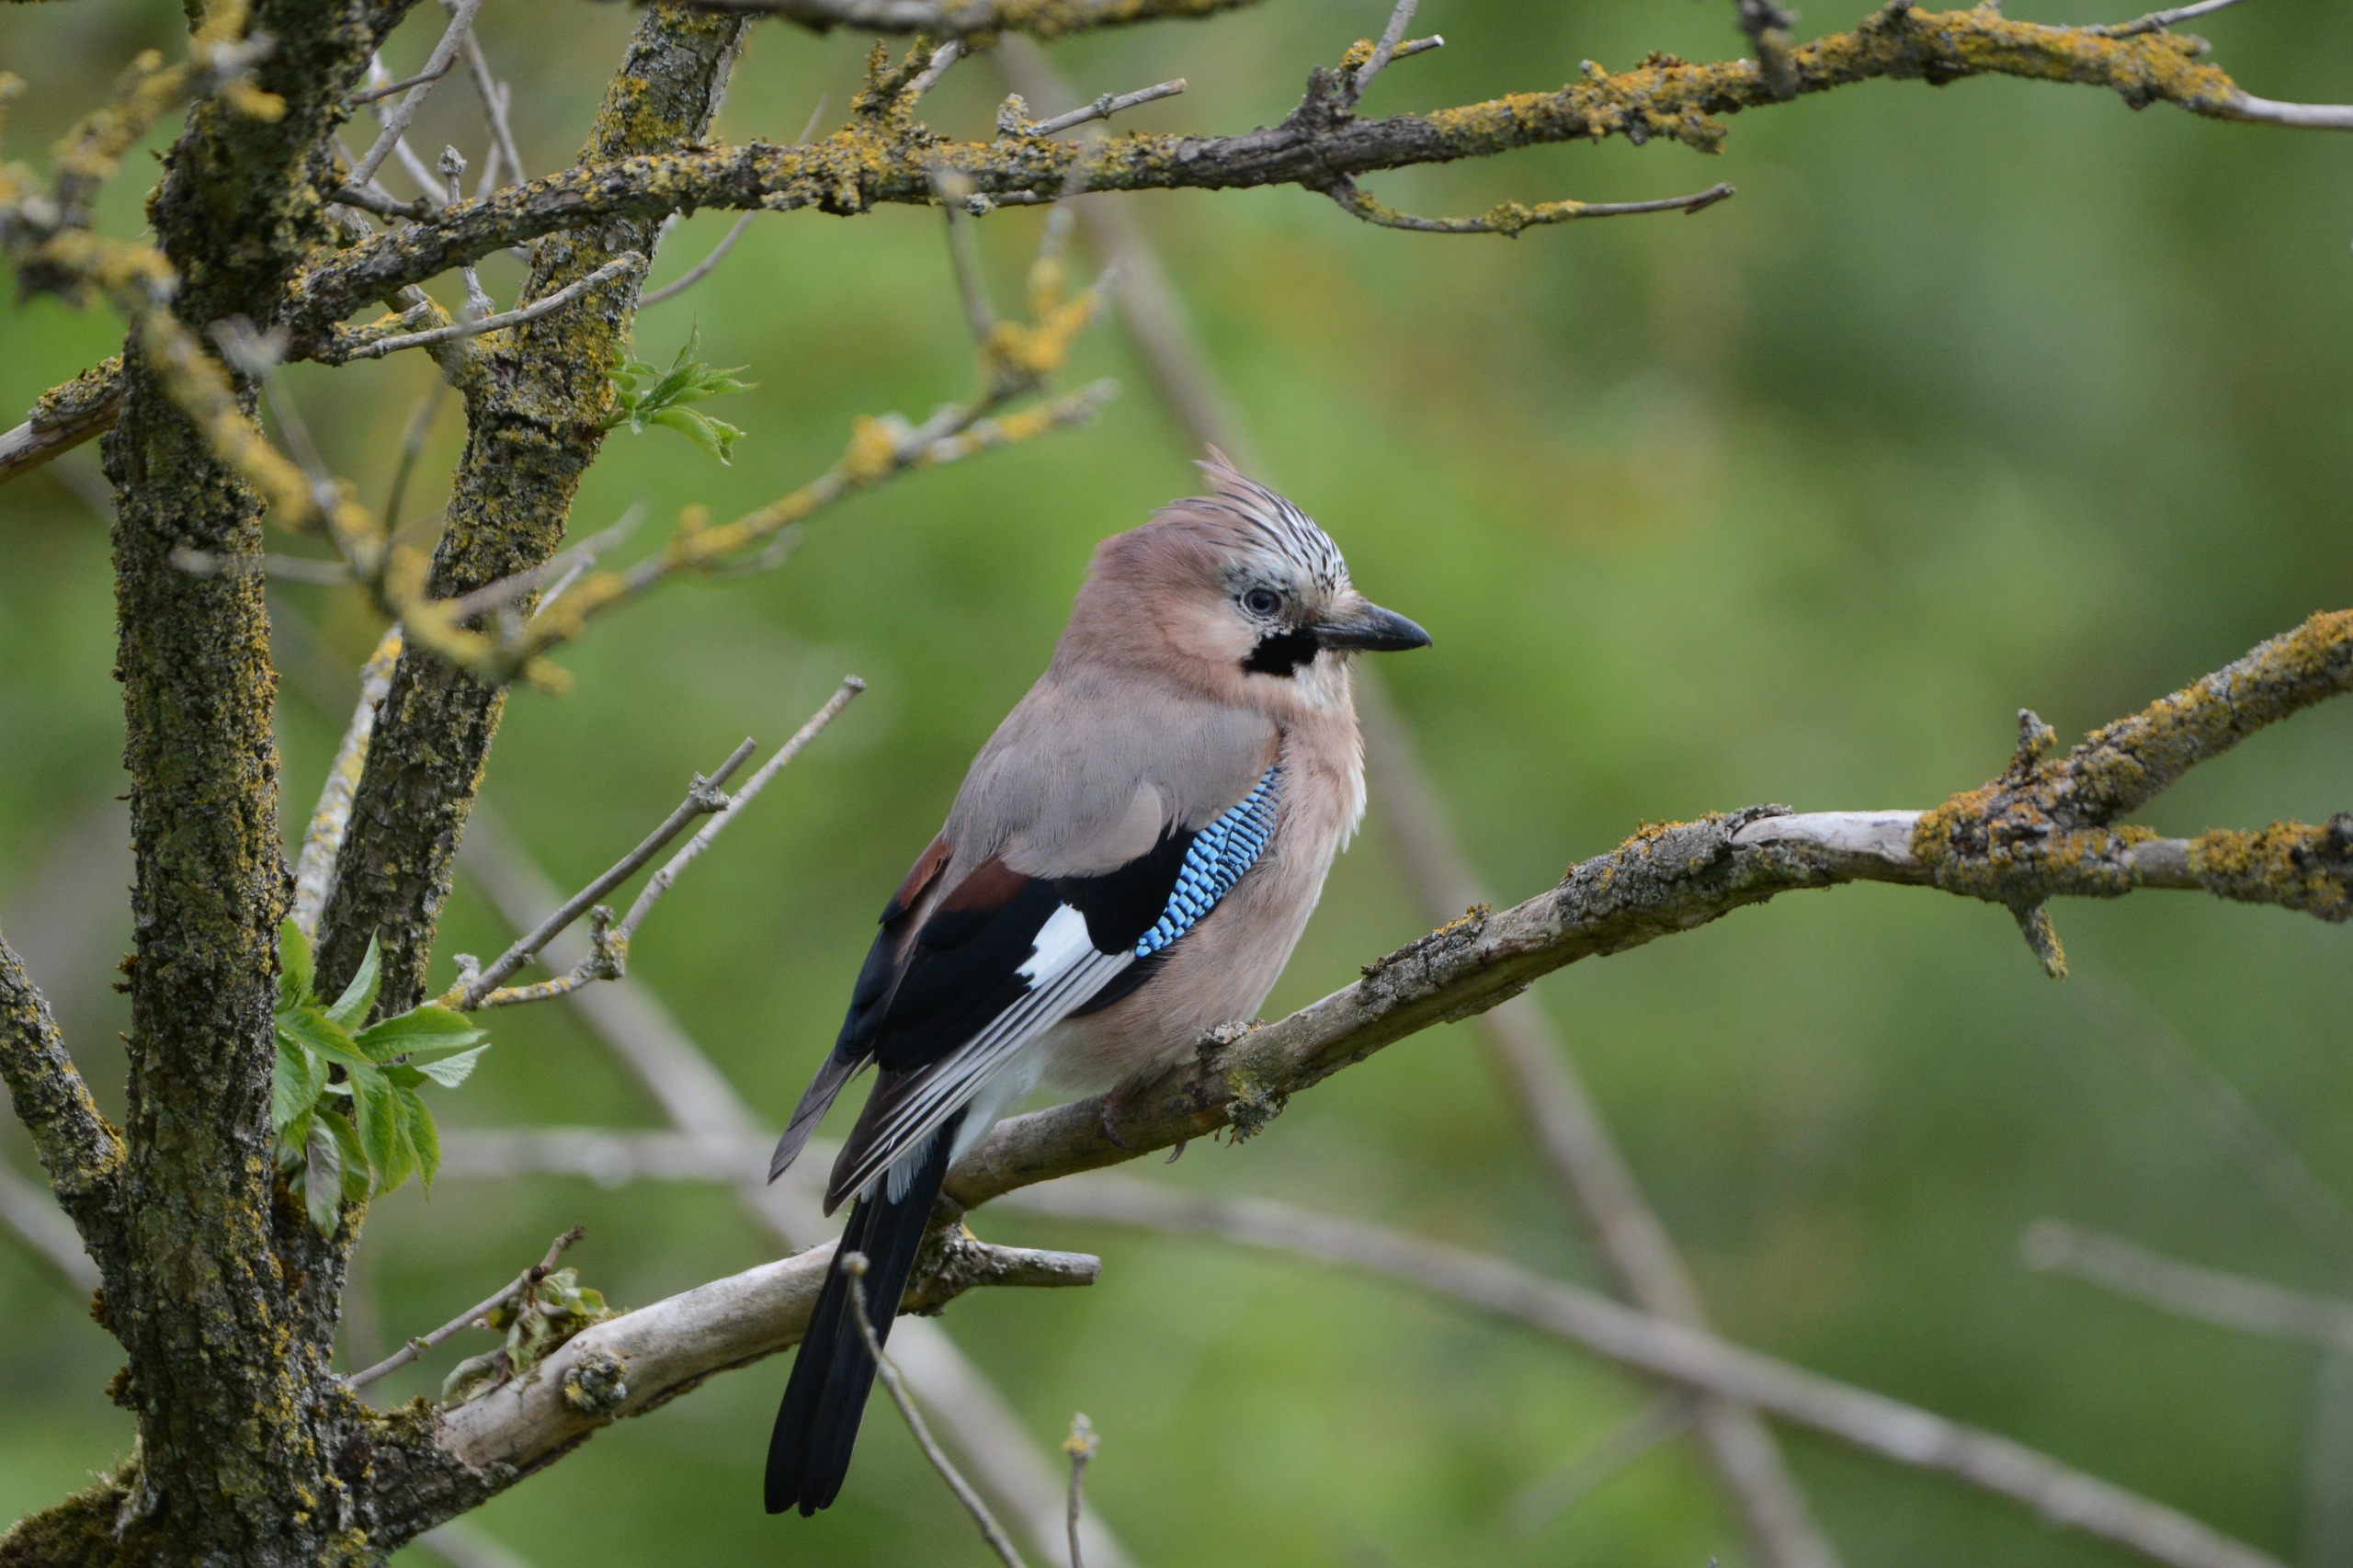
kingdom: Animalia
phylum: Chordata
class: Aves
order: Passeriformes
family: Corvidae
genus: Garrulus
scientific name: Garrulus glandarius
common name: Skovskade
